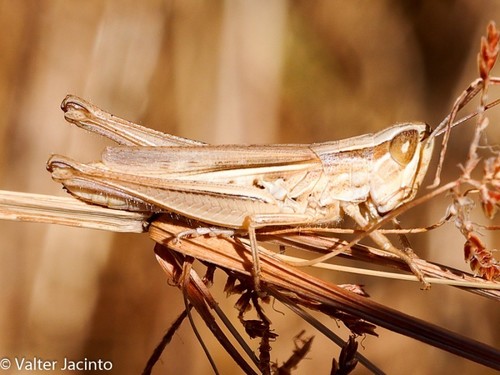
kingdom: Animalia
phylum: Arthropoda
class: Insecta
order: Orthoptera
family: Acrididae
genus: Euchorthippus
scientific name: Euchorthippus elegantulus
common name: Elegant straw grasshopper
